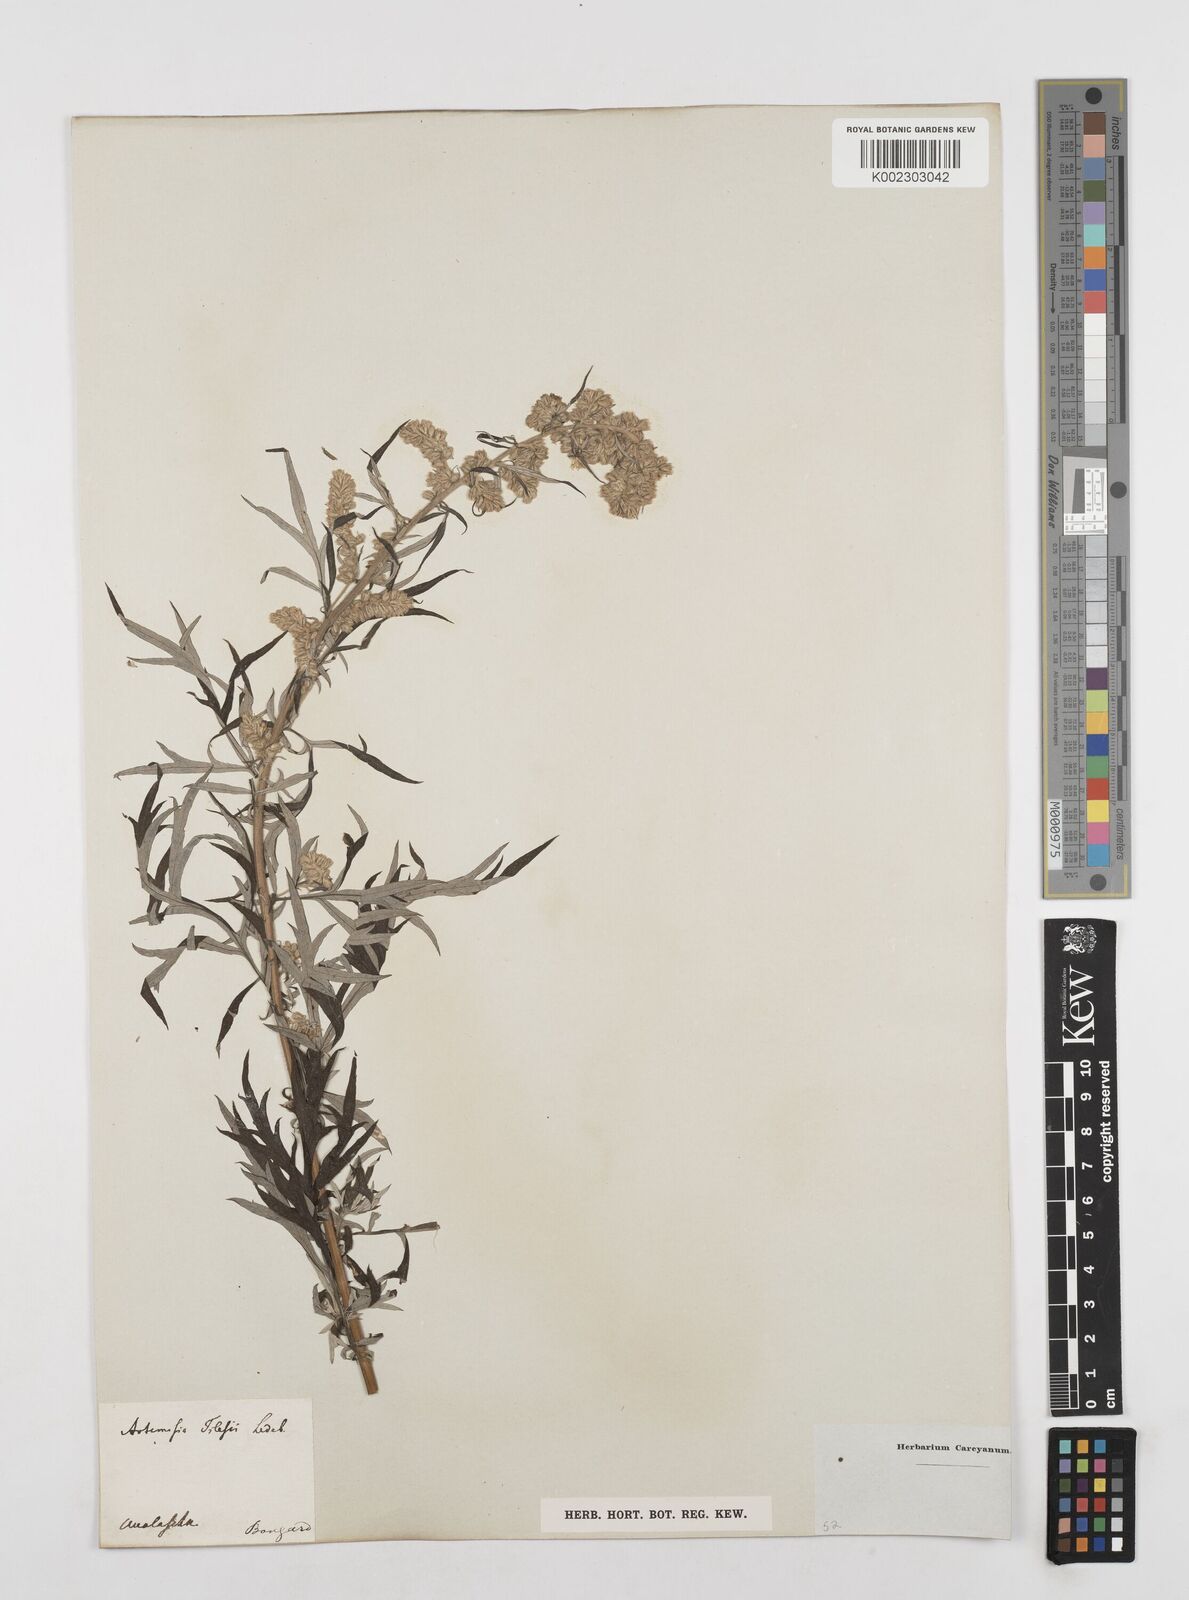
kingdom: Plantae
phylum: Tracheophyta
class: Magnoliopsida
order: Asterales
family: Asteraceae
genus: Artemisia
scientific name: Artemisia tilesii
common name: Aleutian mugwort
